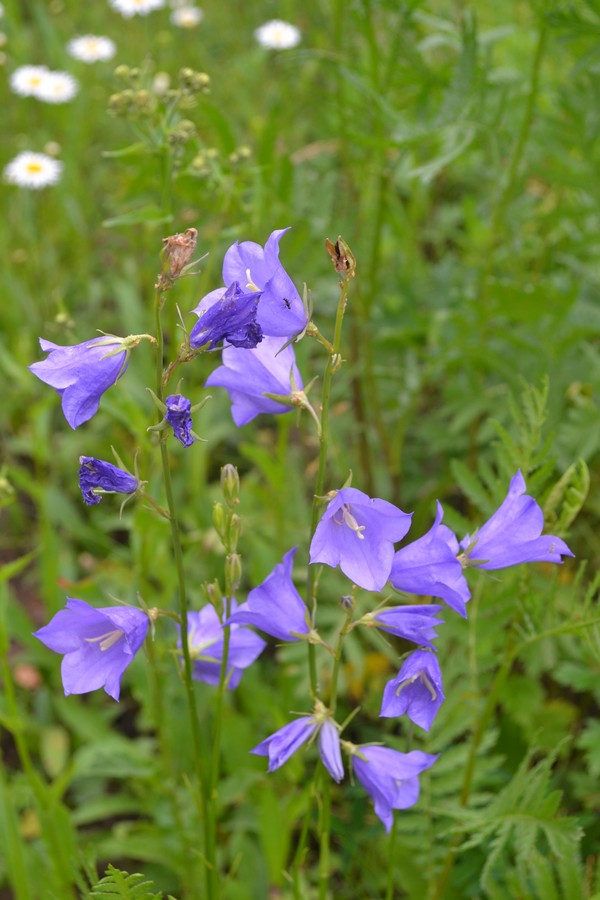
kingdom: Plantae
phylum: Tracheophyta
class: Magnoliopsida
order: Asterales
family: Campanulaceae
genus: Campanula
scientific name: Campanula persicifolia
